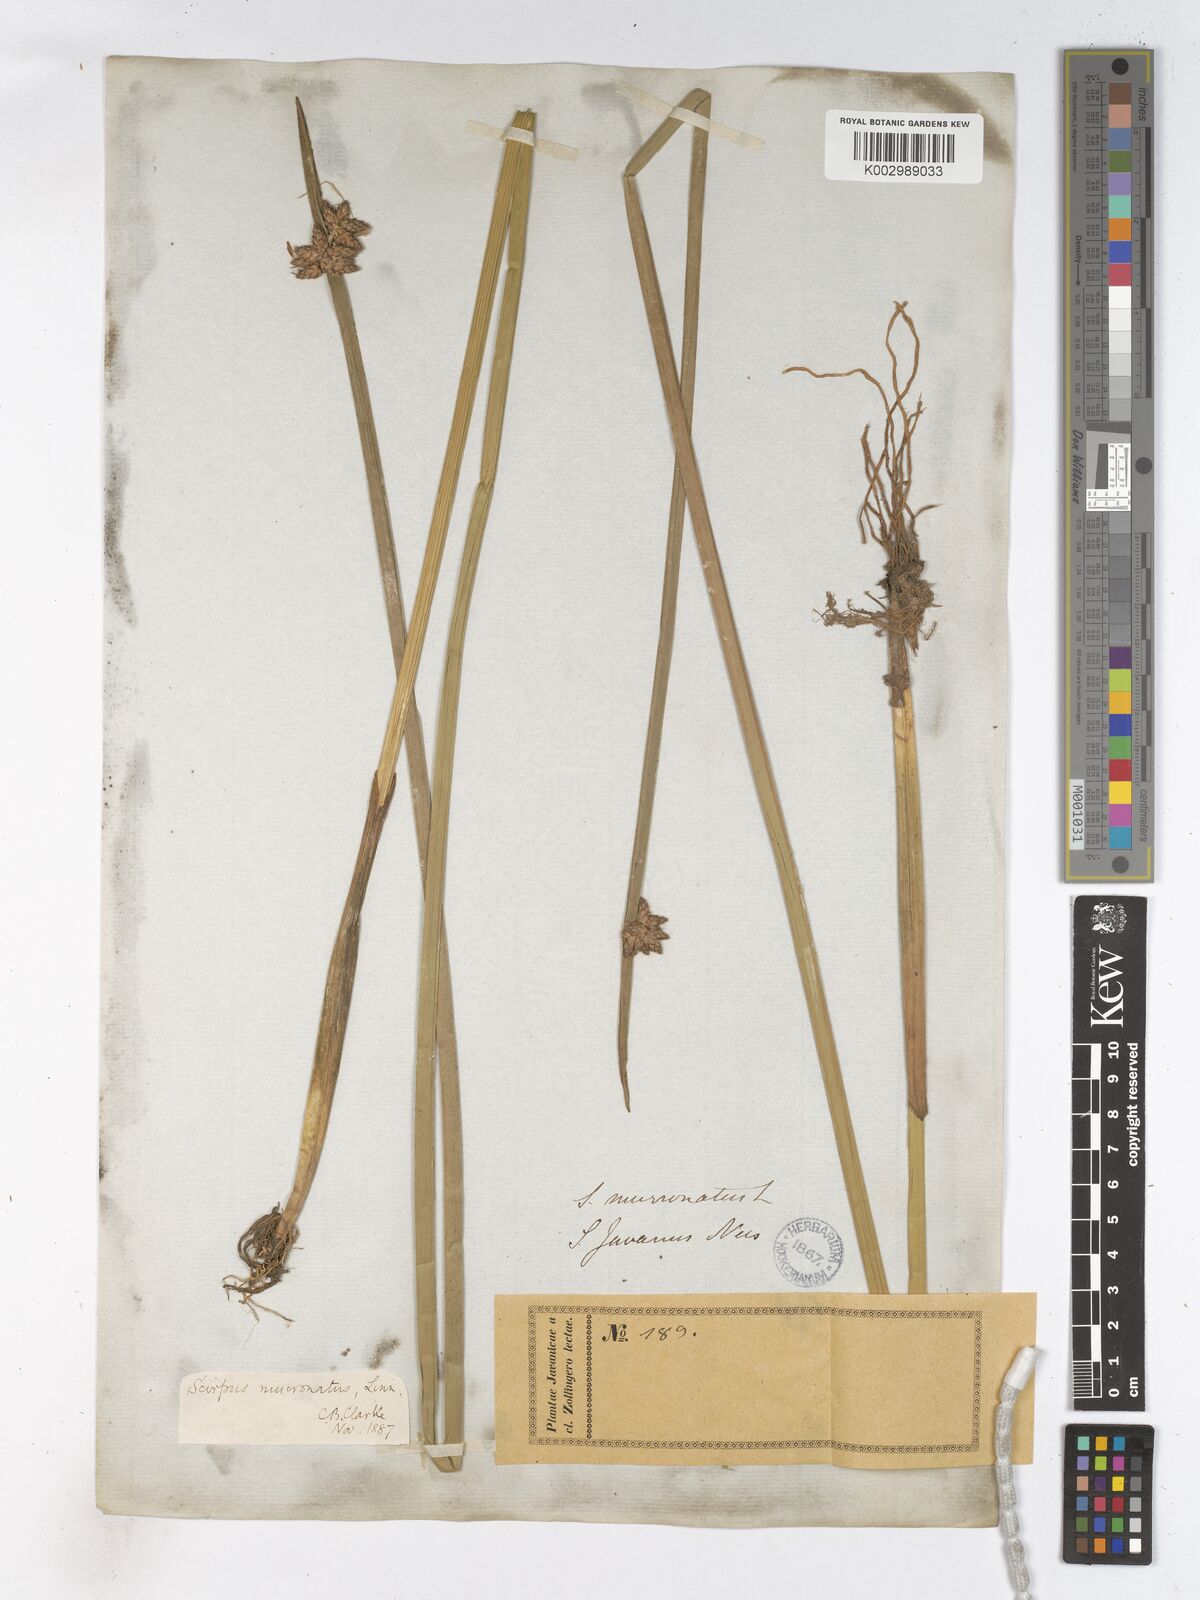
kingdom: Plantae
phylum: Tracheophyta
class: Liliopsida
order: Poales
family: Cyperaceae
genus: Schoenoplectiella
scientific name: Schoenoplectiella mucronata
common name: Bog bulrush
